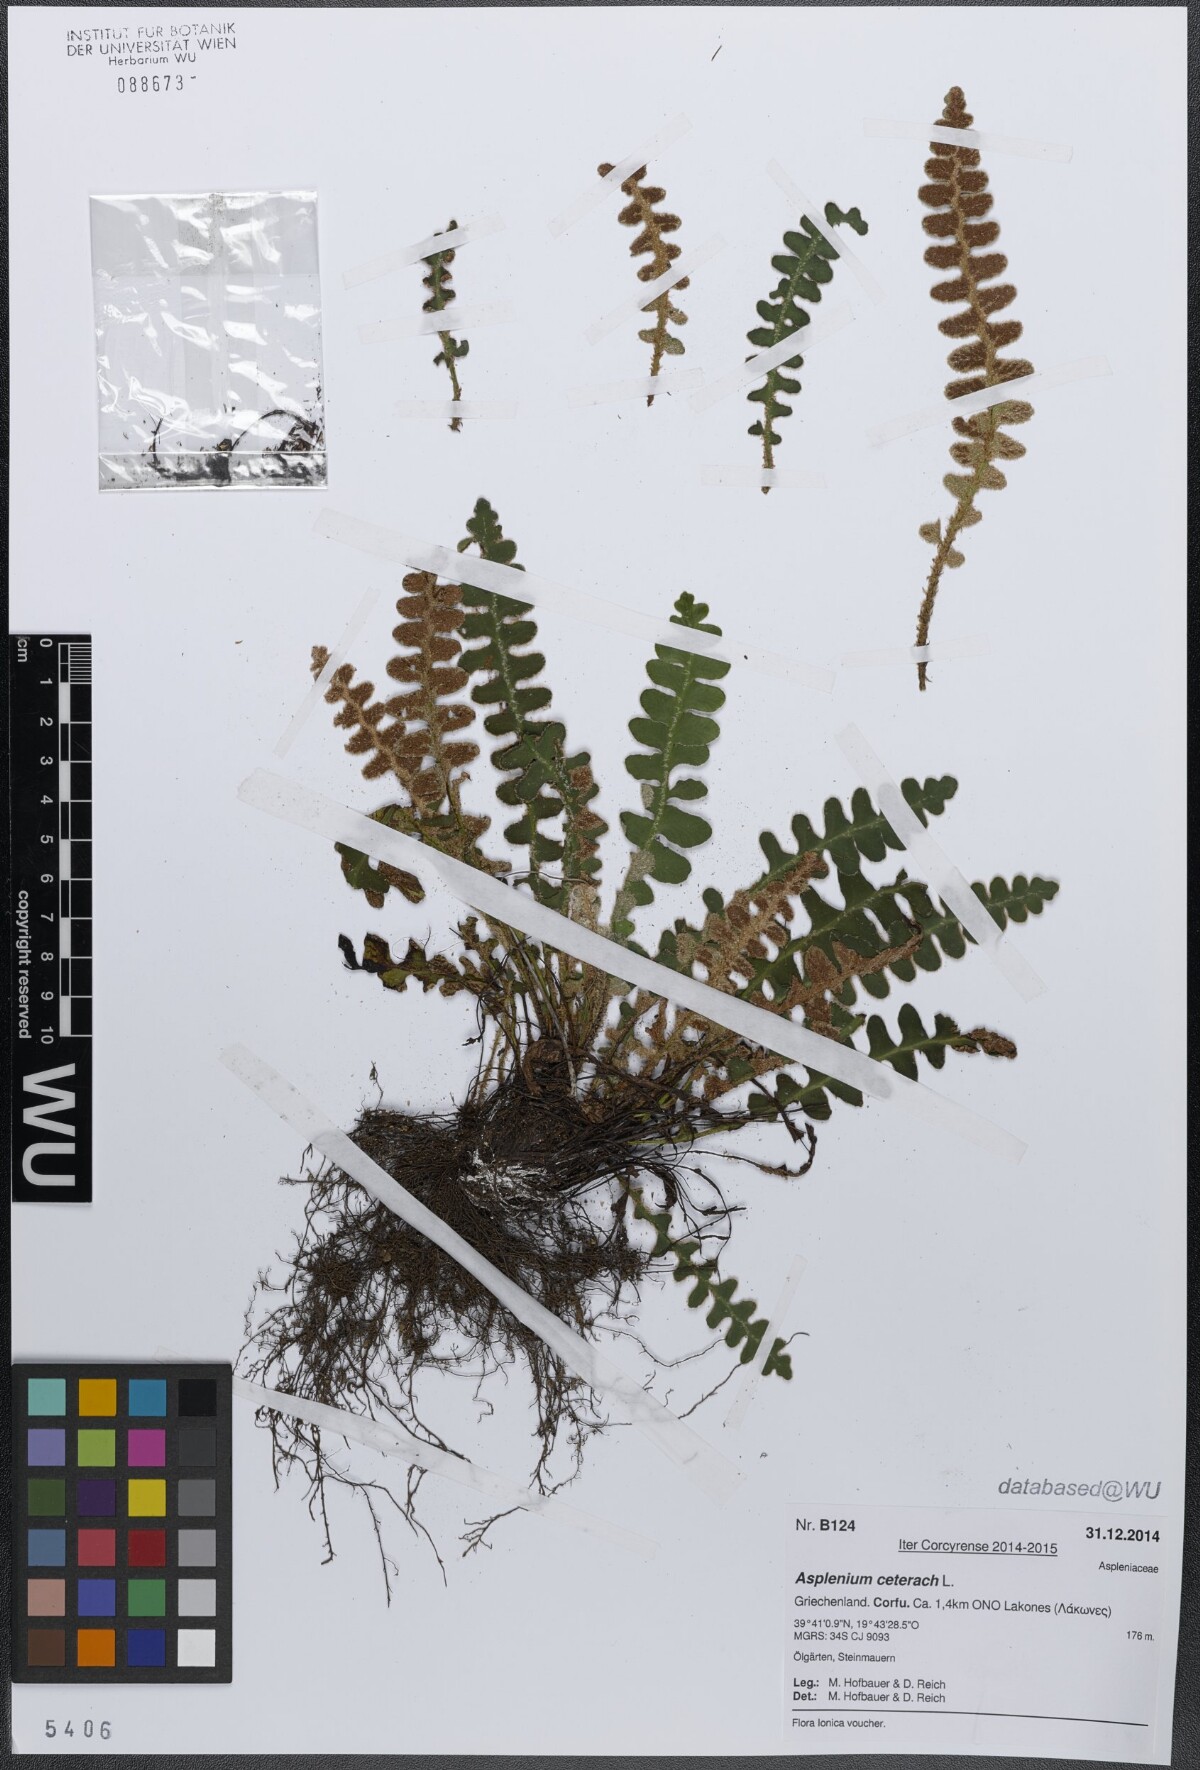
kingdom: Plantae
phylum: Tracheophyta
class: Polypodiopsida
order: Polypodiales
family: Aspleniaceae
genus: Asplenium
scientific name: Asplenium ceterach
